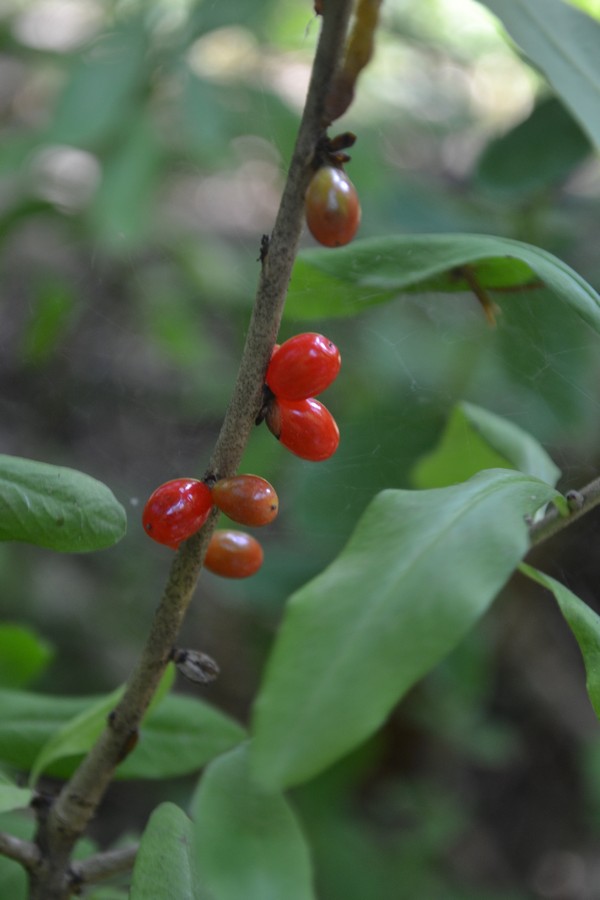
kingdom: Plantae
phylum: Tracheophyta
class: Magnoliopsida
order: Malvales
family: Thymelaeaceae
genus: Daphne
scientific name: Daphne mezereum
